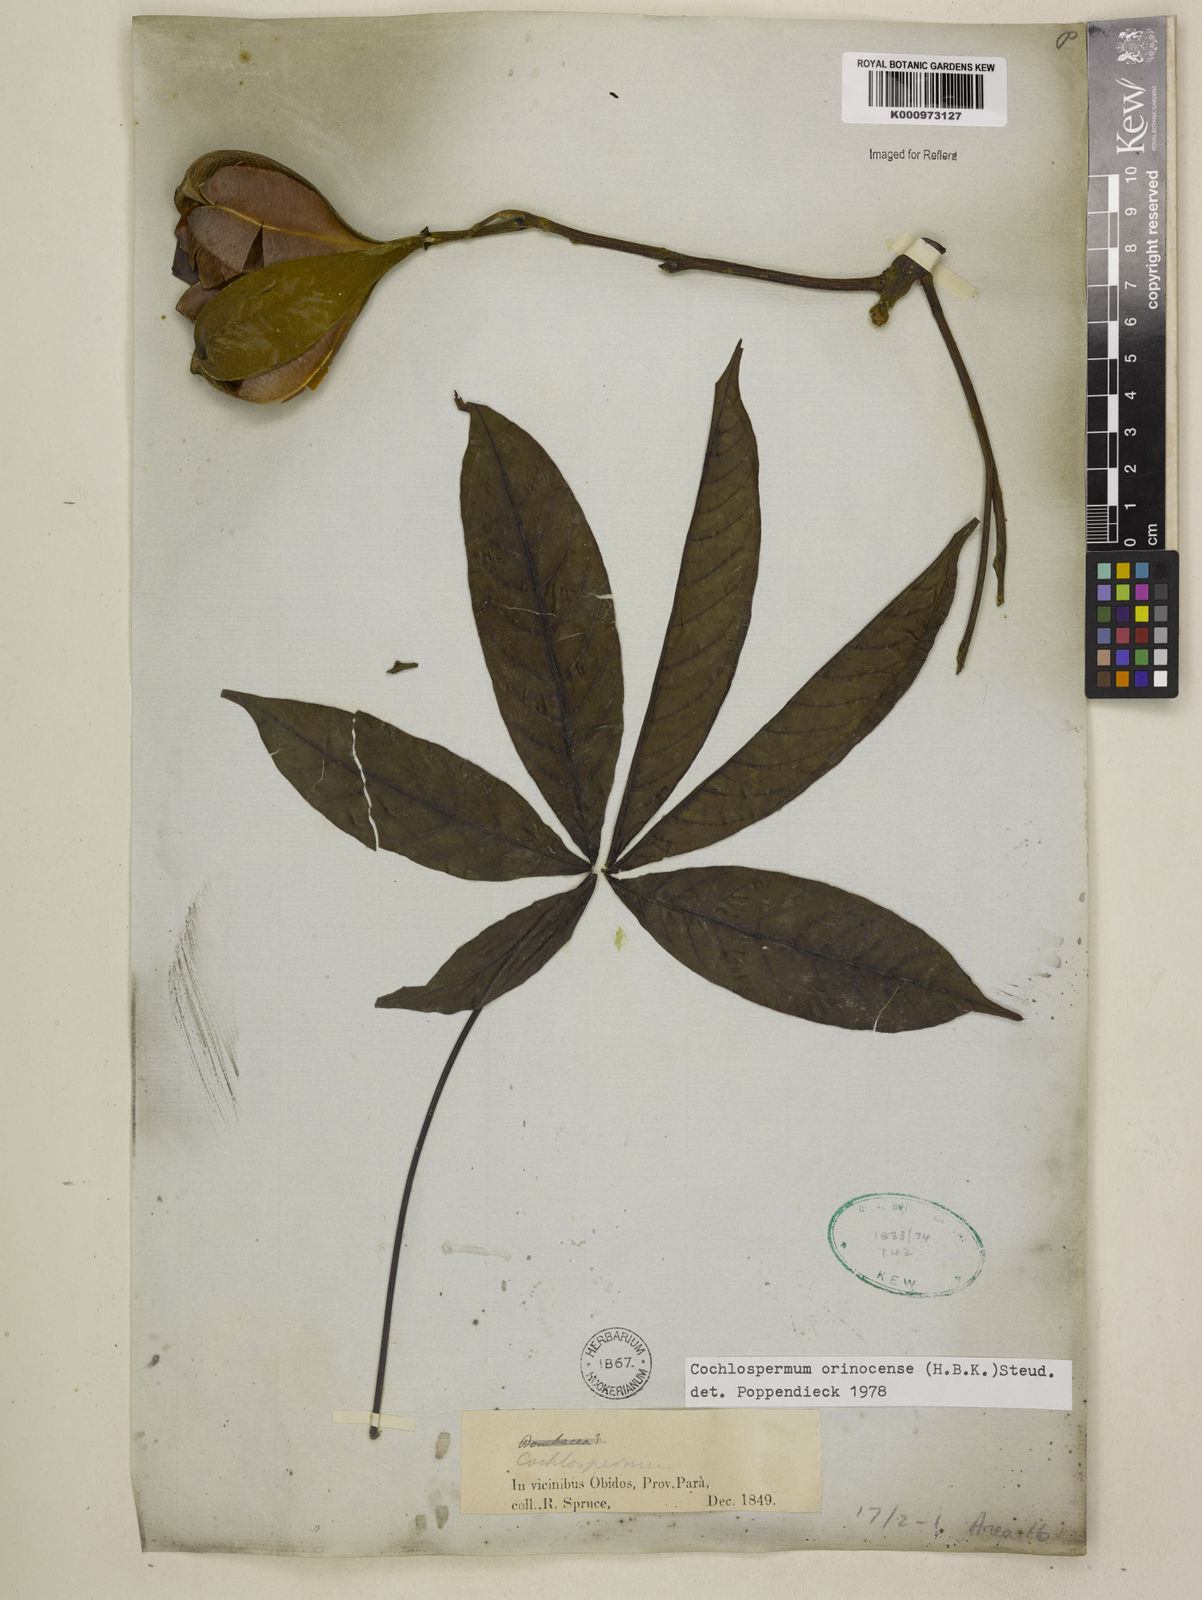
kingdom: Plantae
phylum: Tracheophyta
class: Magnoliopsida
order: Malvales
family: Cochlospermaceae
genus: Cochlospermum
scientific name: Cochlospermum orinocense
